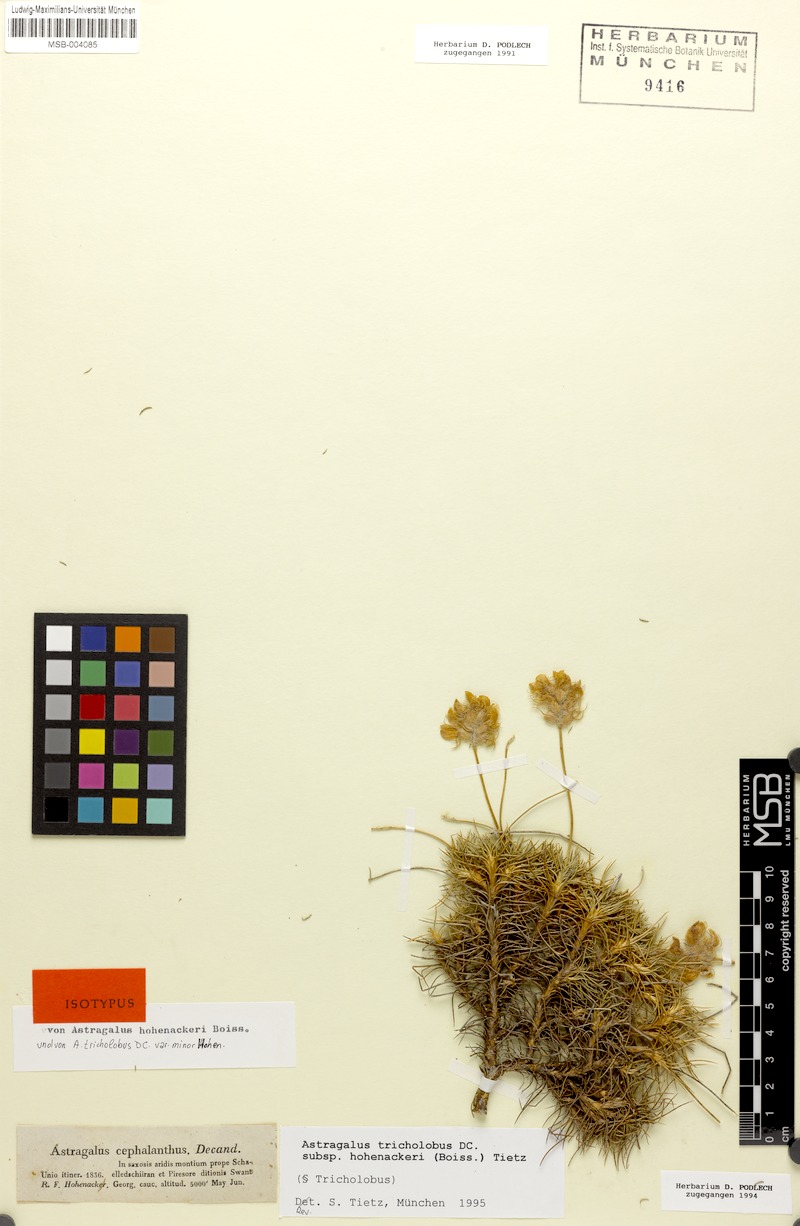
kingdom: Plantae
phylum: Tracheophyta
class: Magnoliopsida
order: Fabales
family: Fabaceae
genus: Astragalus
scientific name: Astragalus hohenackeri
